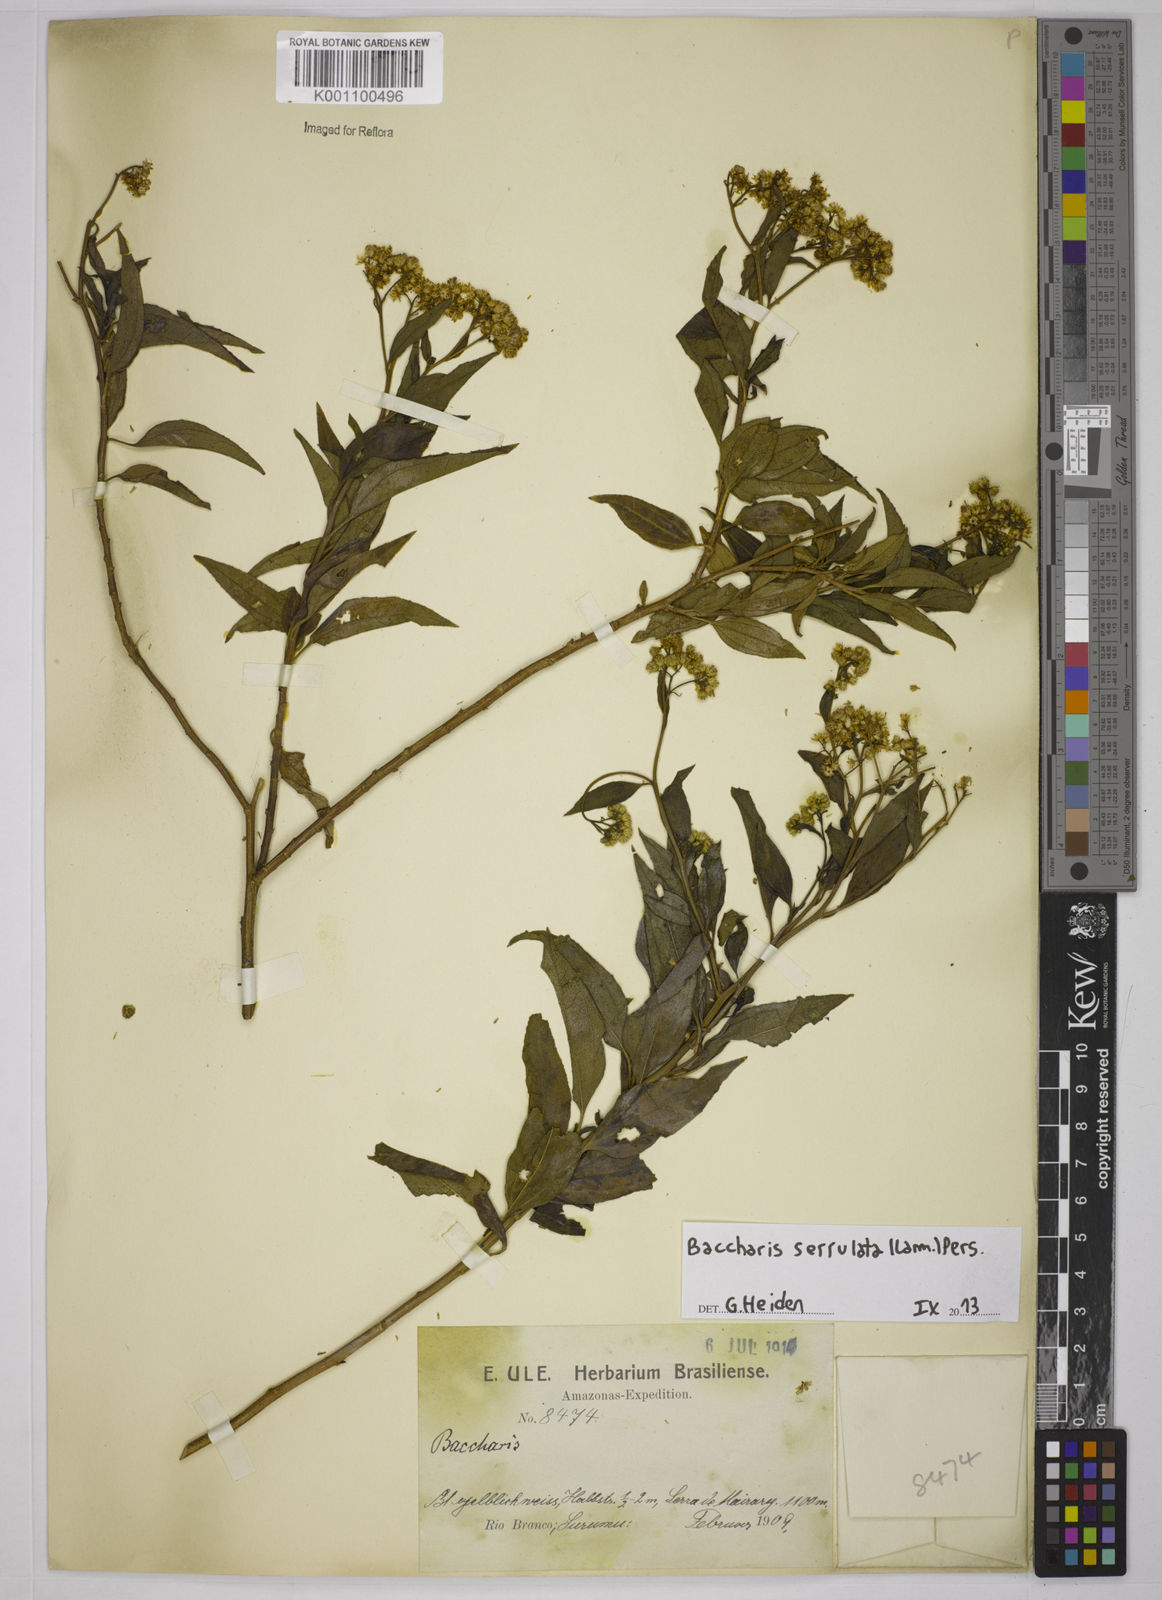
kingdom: Plantae
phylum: Tracheophyta
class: Magnoliopsida
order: Asterales
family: Asteraceae
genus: Baccharis
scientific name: Baccharis serrulata
